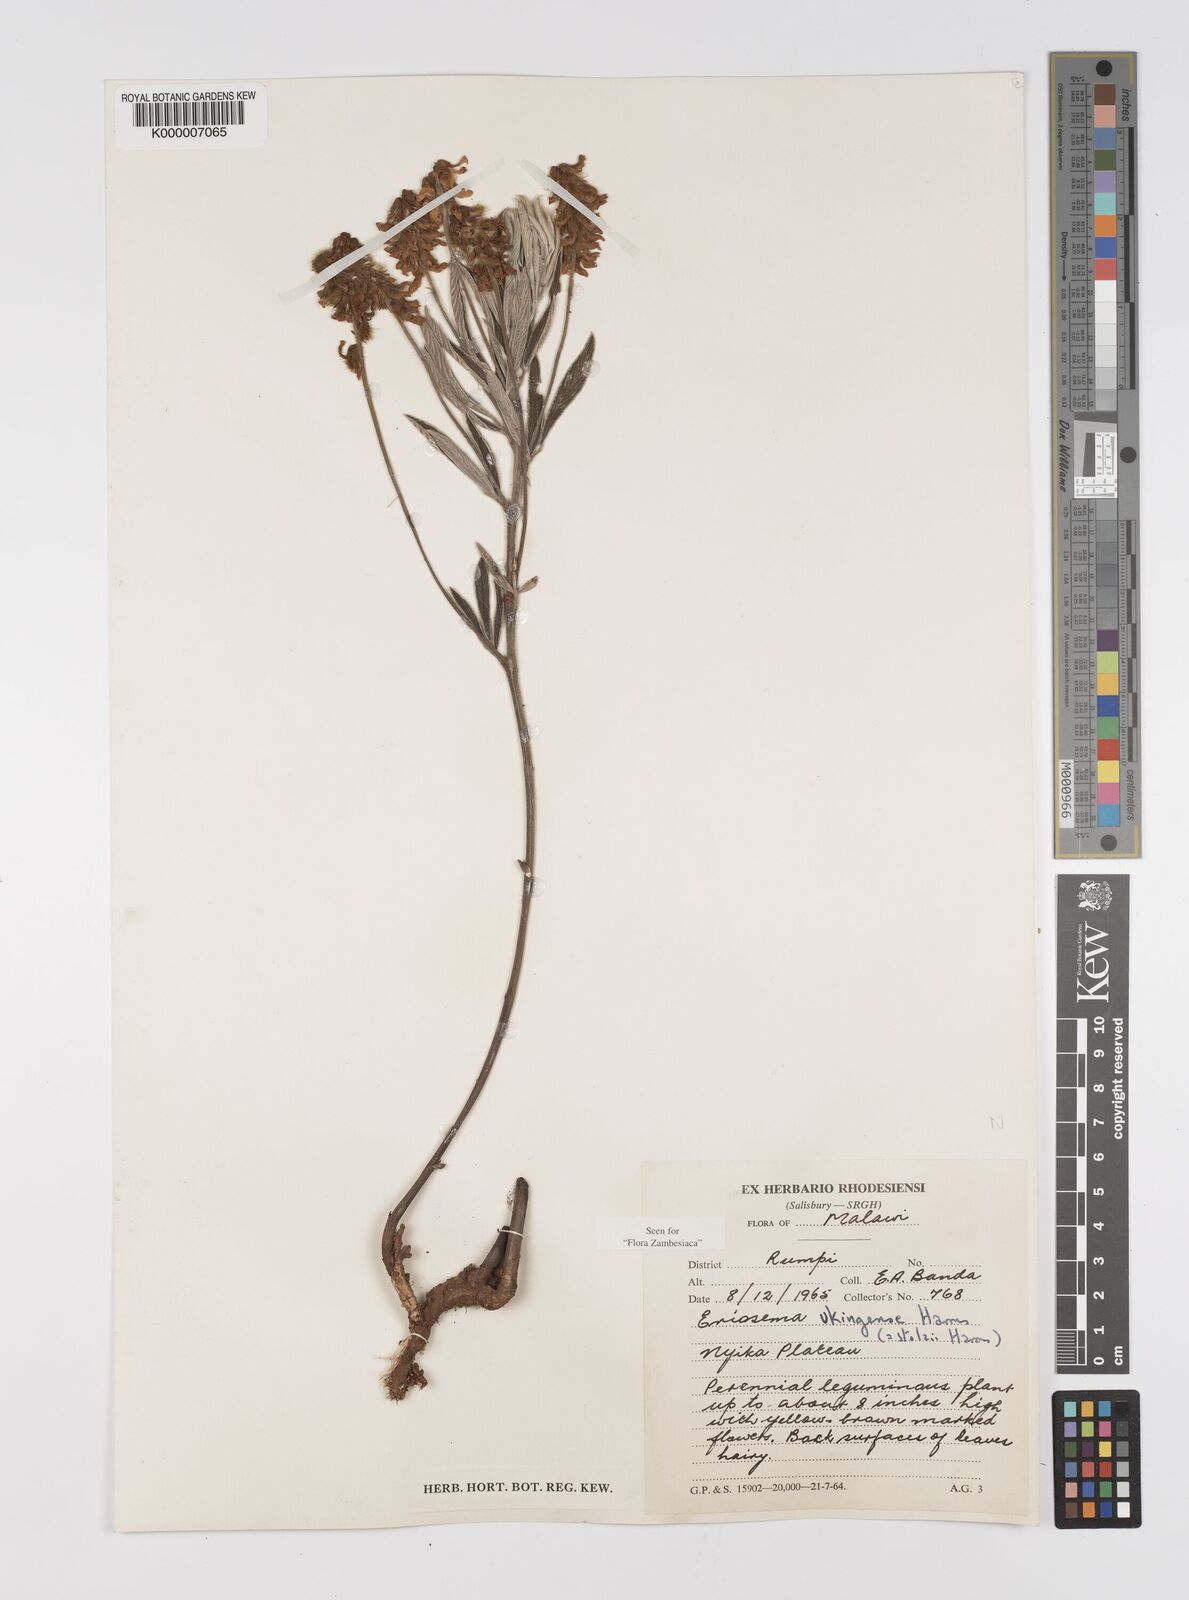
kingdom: Plantae
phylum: Tracheophyta
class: Magnoliopsida
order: Fabales
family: Fabaceae
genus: Eriosema
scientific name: Eriosema ukingense
